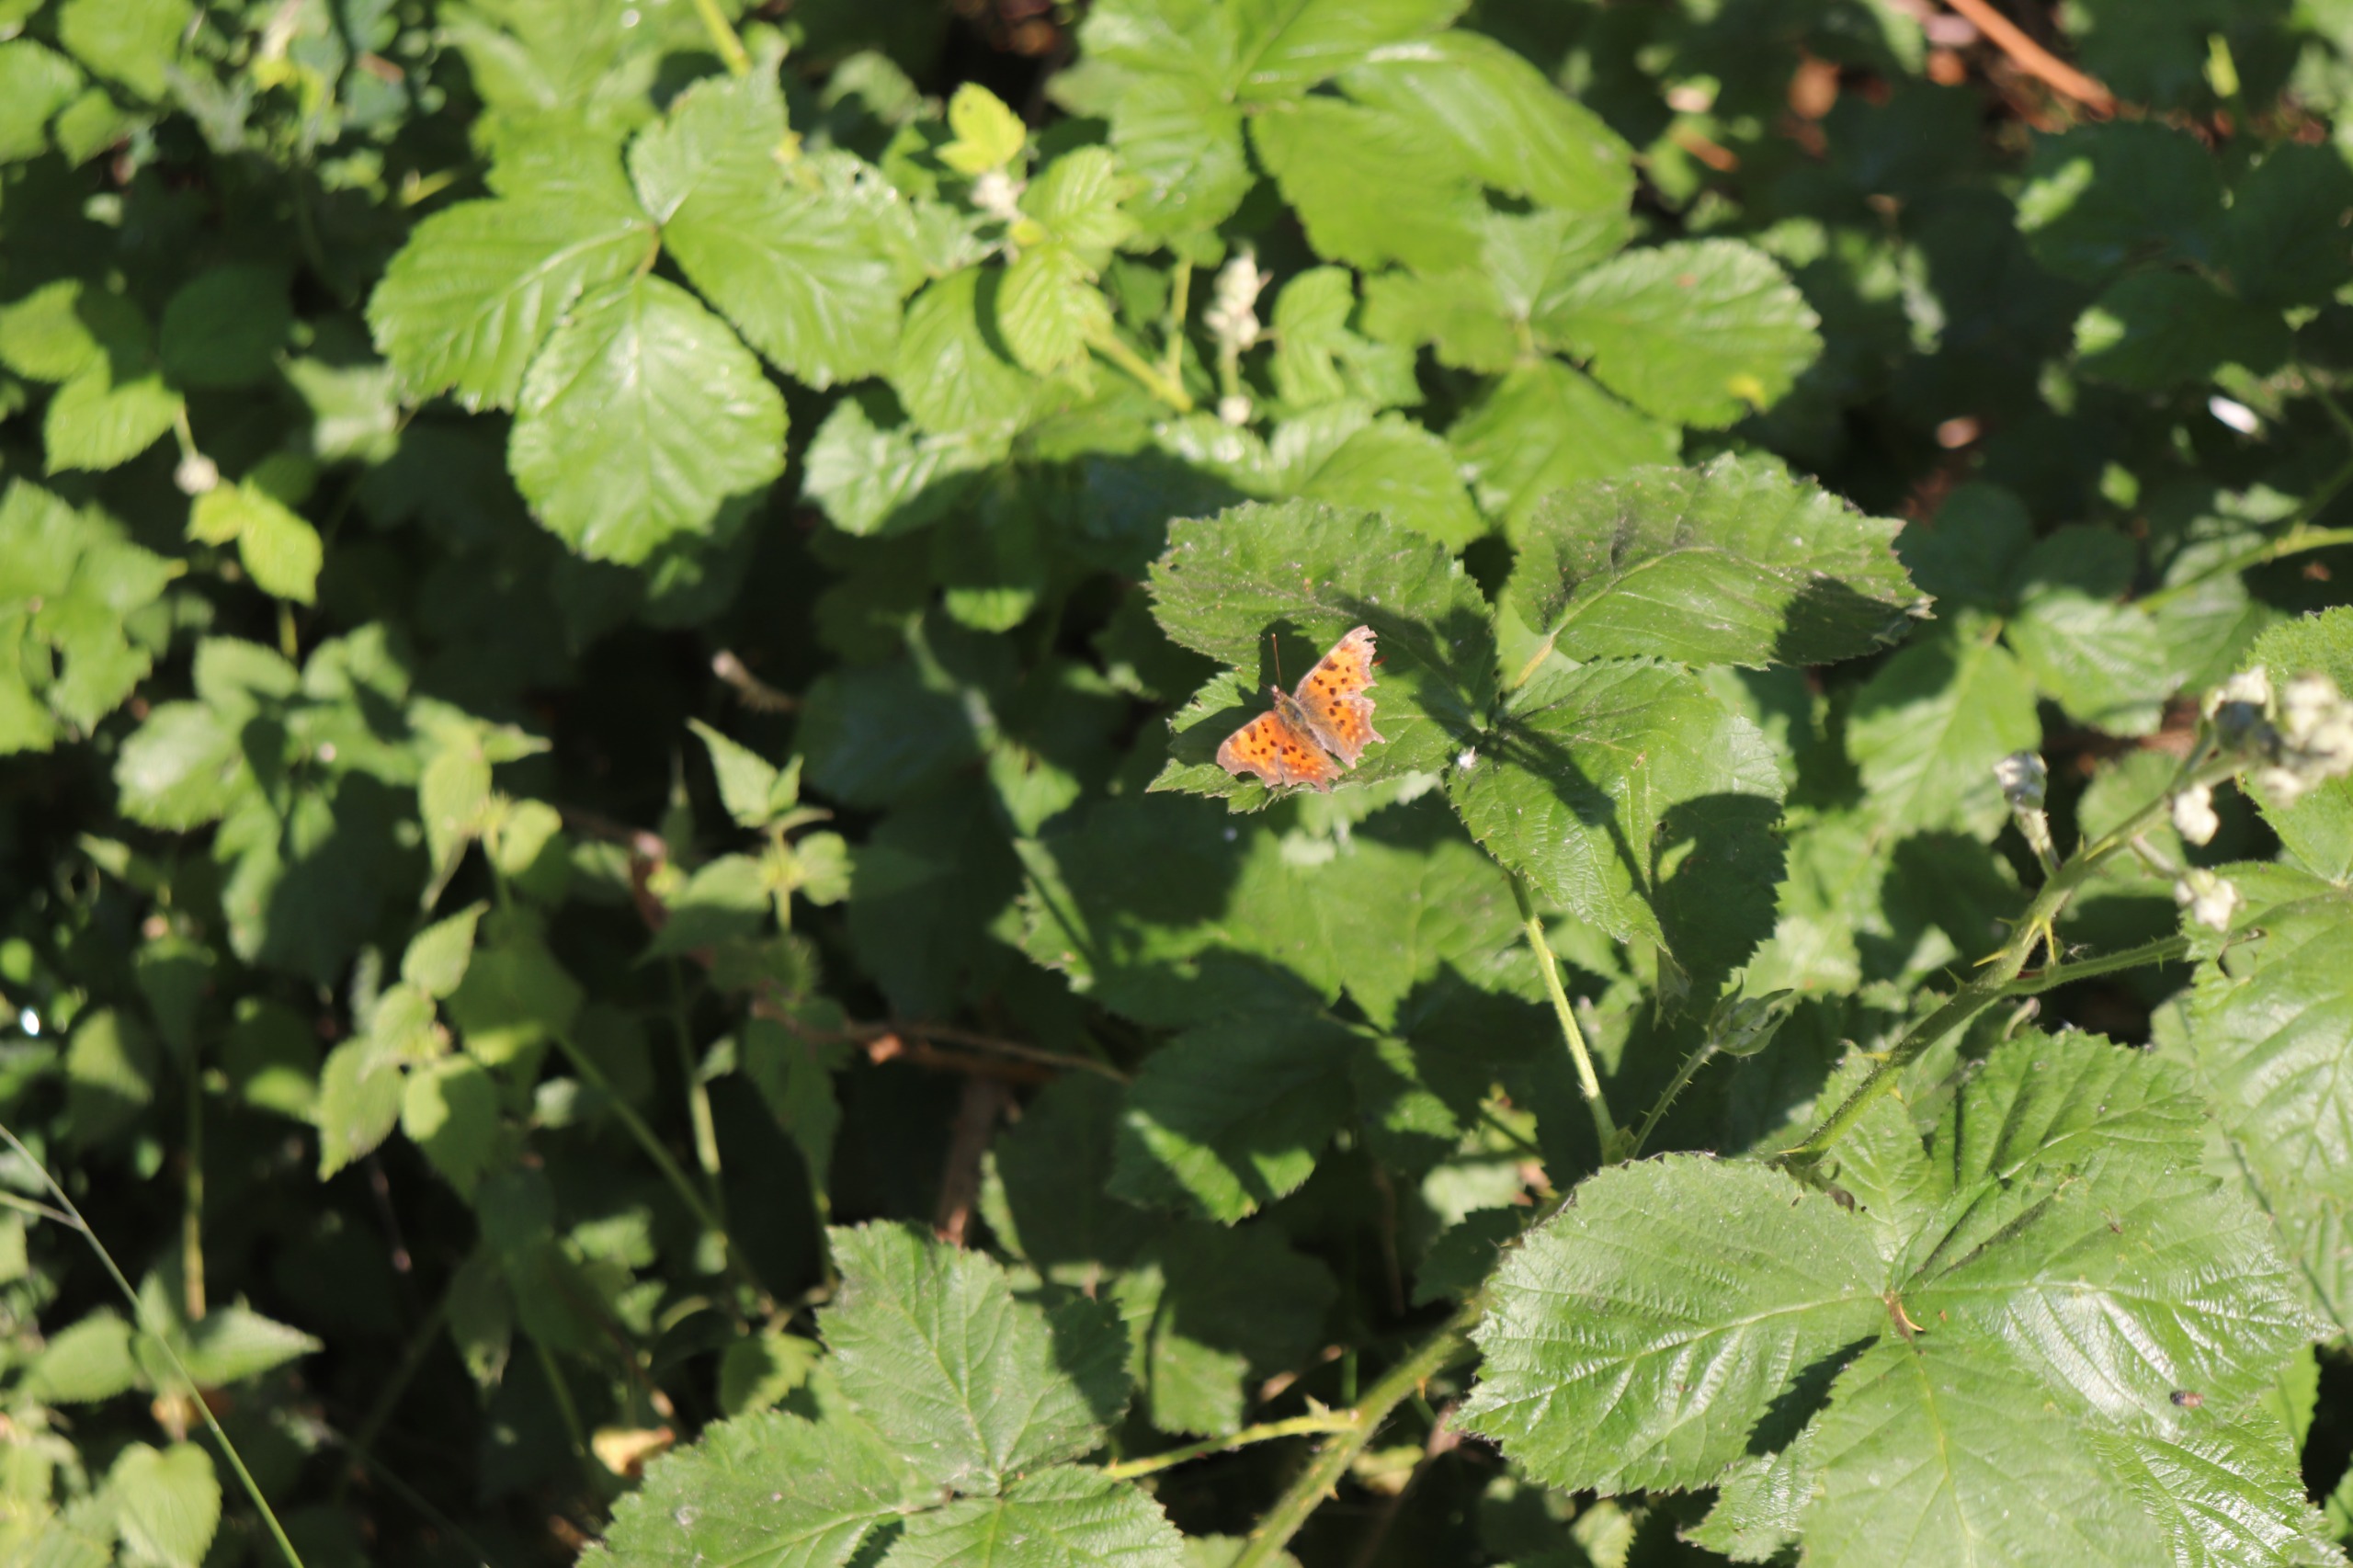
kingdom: Animalia
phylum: Arthropoda
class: Insecta
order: Lepidoptera
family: Nymphalidae
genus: Polygonia
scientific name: Polygonia c-album
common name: Det hvide C
